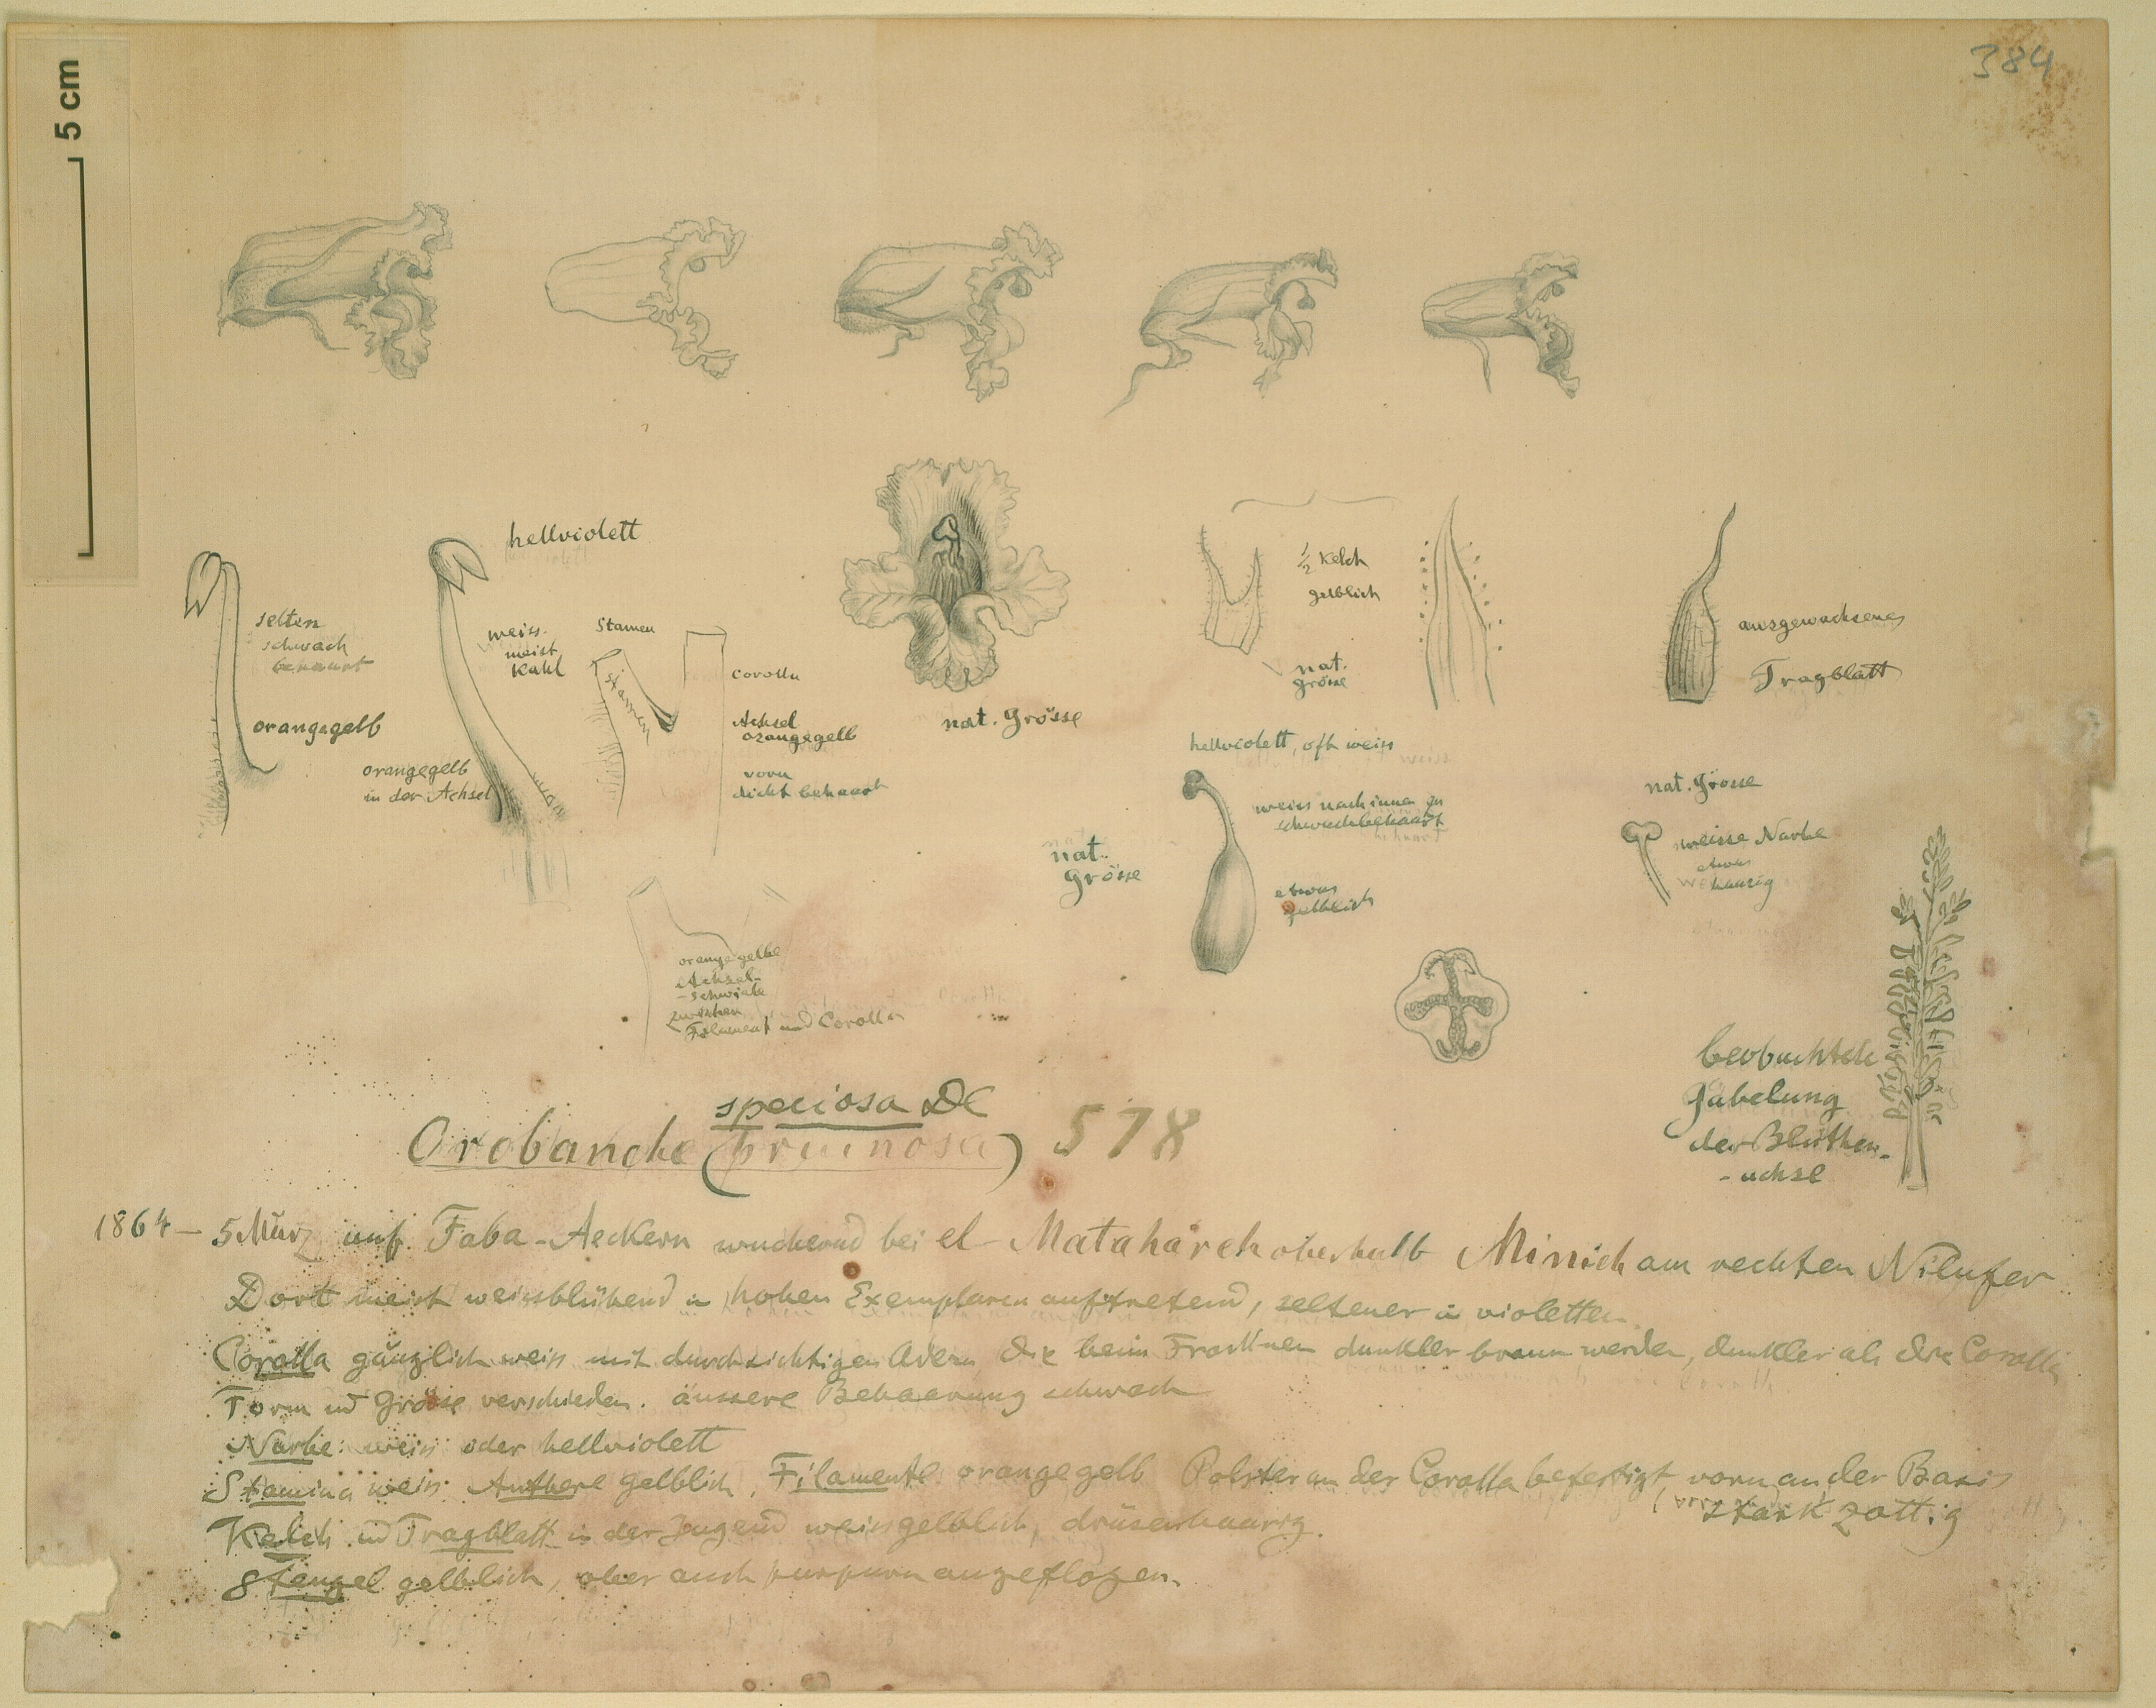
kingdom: Plantae
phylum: Tracheophyta
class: Magnoliopsida
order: Lamiales
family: Orobanchaceae
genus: Orobanche
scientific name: Orobanche crenata
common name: Bean broomrape
